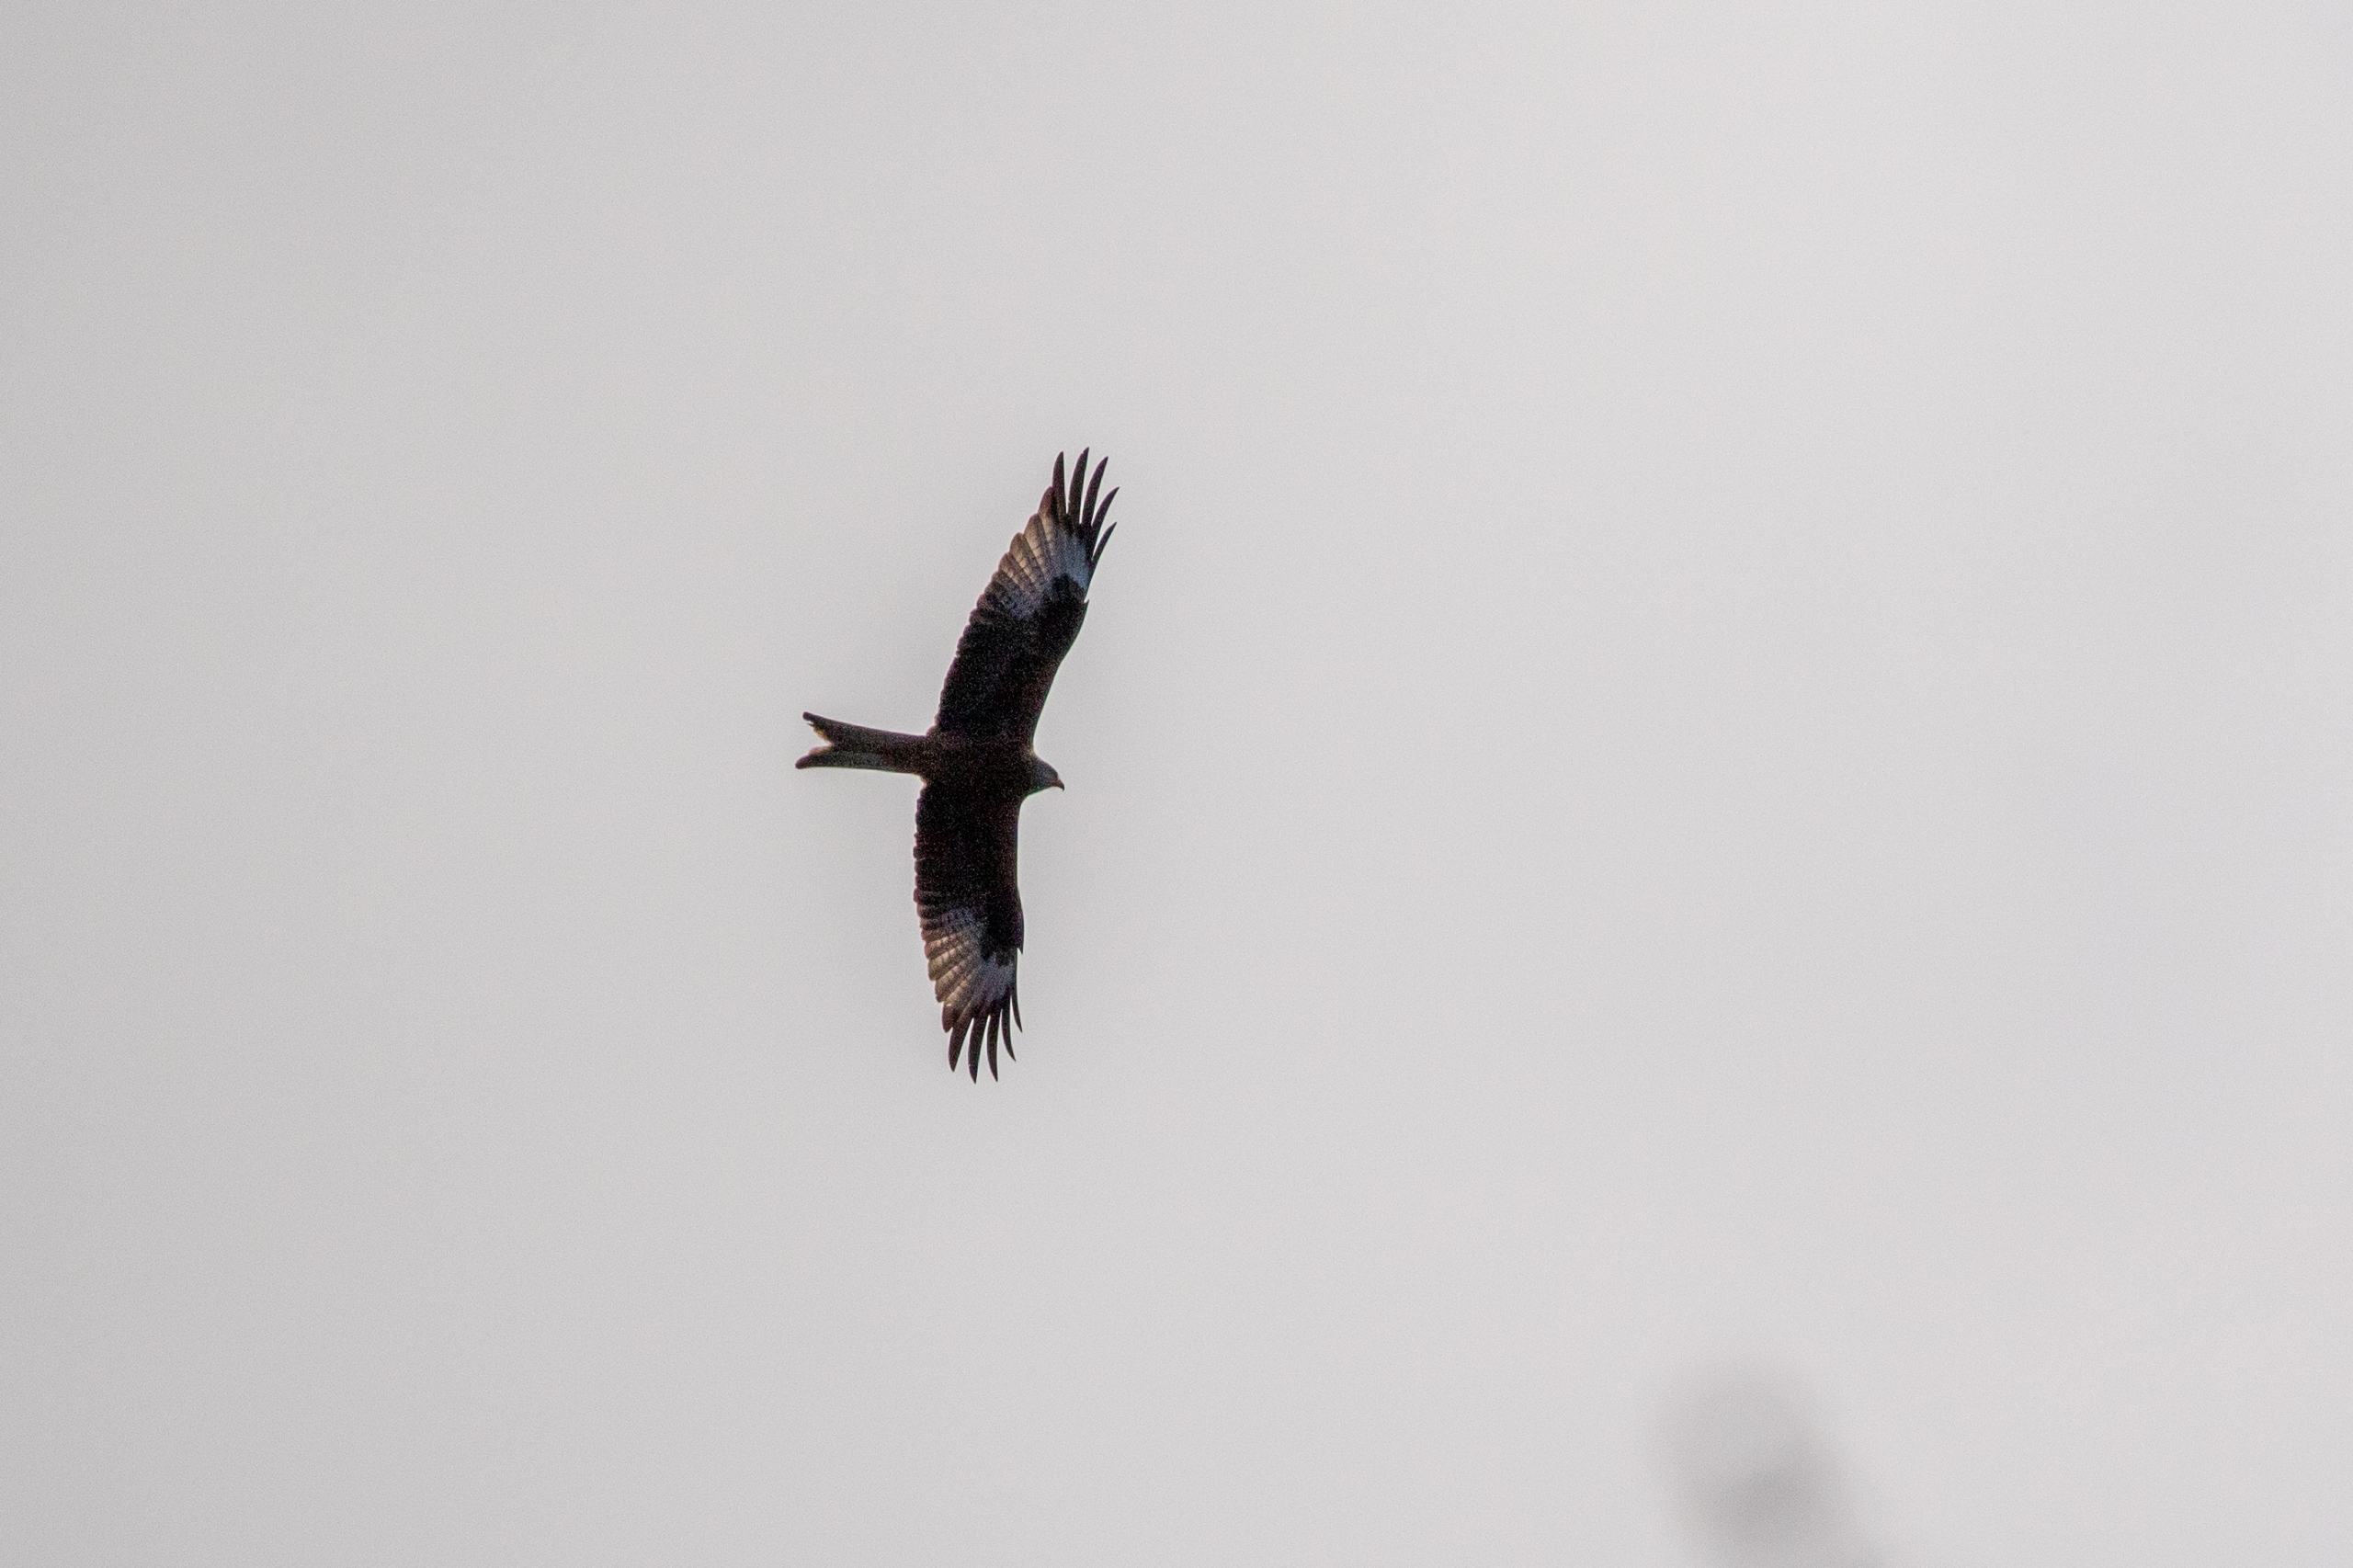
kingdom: Animalia
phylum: Chordata
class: Aves
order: Accipitriformes
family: Accipitridae
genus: Milvus
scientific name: Milvus milvus
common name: Rød glente
